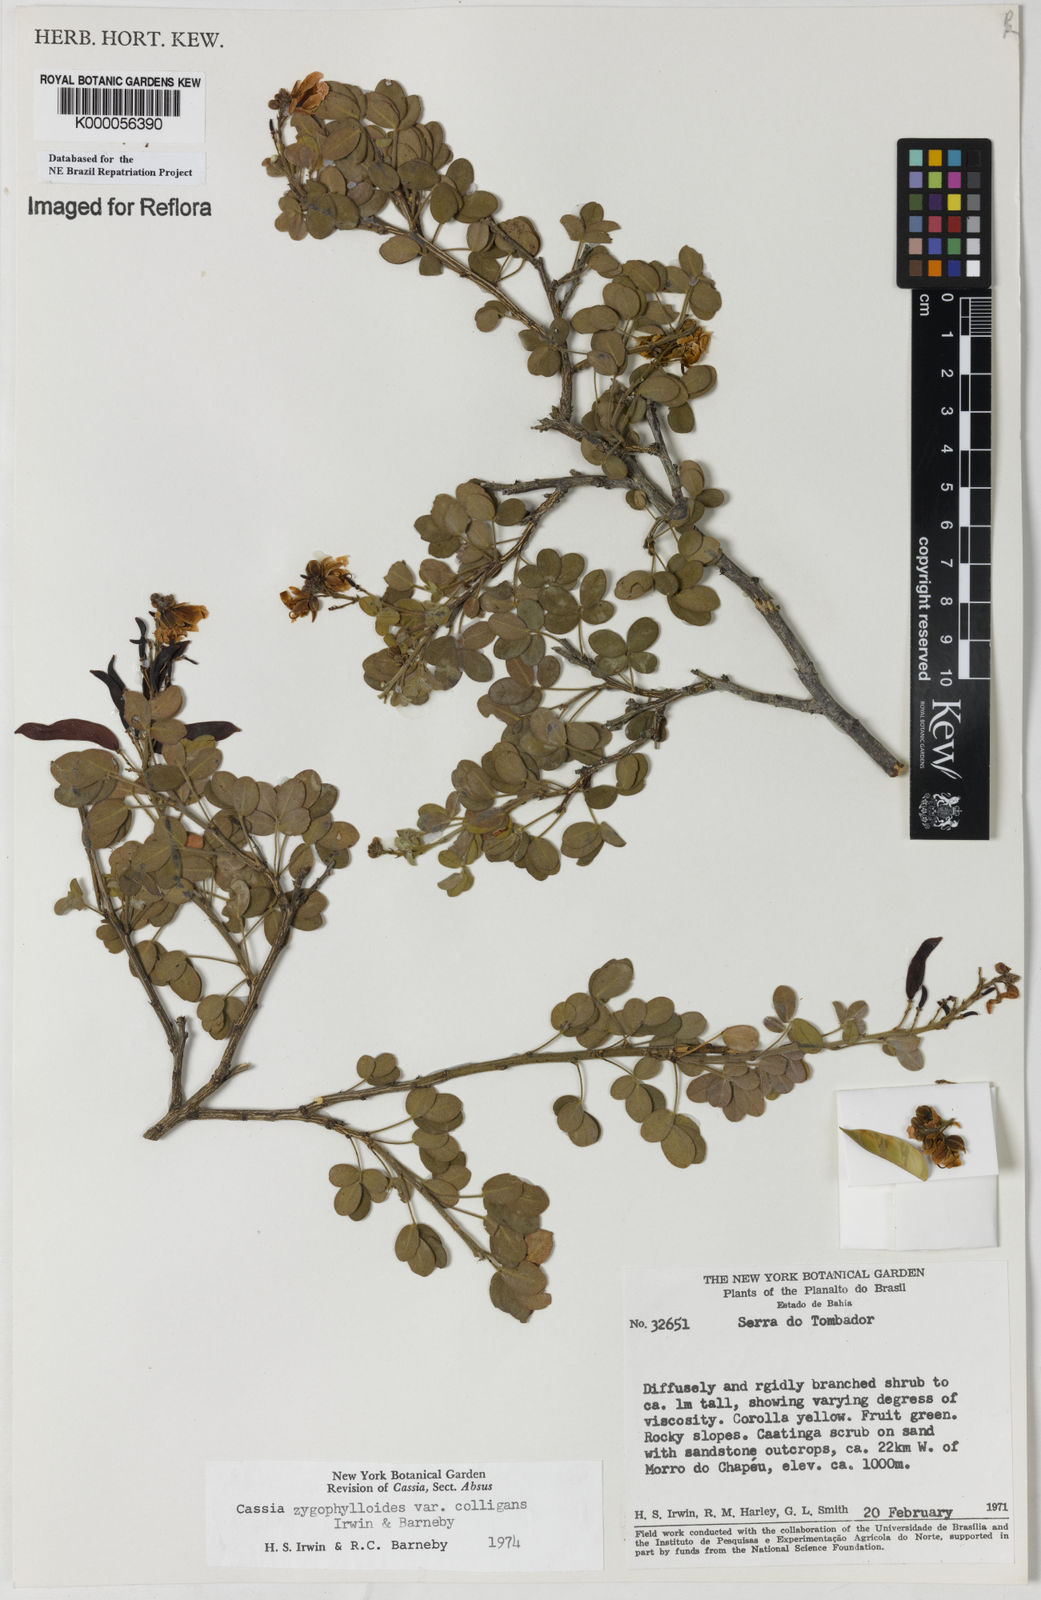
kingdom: Plantae
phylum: Tracheophyta
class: Magnoliopsida
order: Fabales
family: Fabaceae
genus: Chamaecrista
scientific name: Chamaecrista zygophylloides
